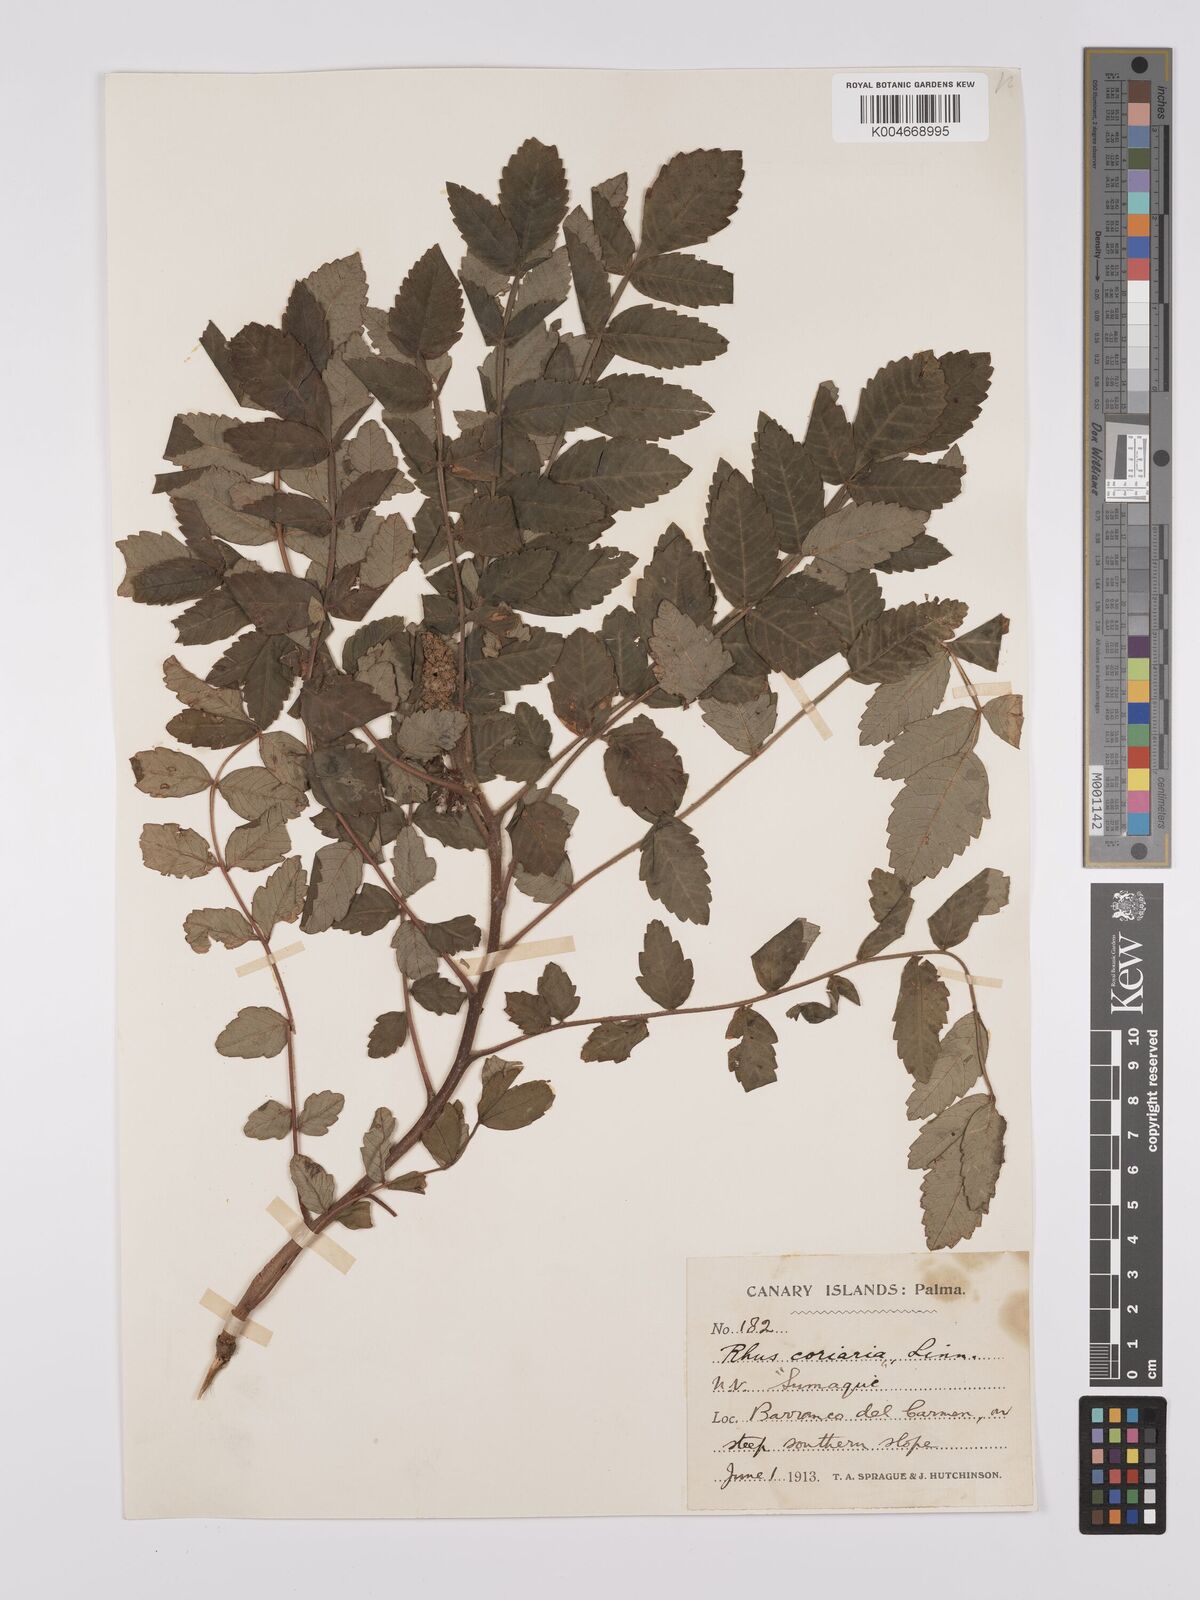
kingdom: Plantae
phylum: Tracheophyta
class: Magnoliopsida
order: Sapindales
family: Anacardiaceae
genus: Rhus
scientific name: Rhus coriaria
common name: Tanner's sumach
